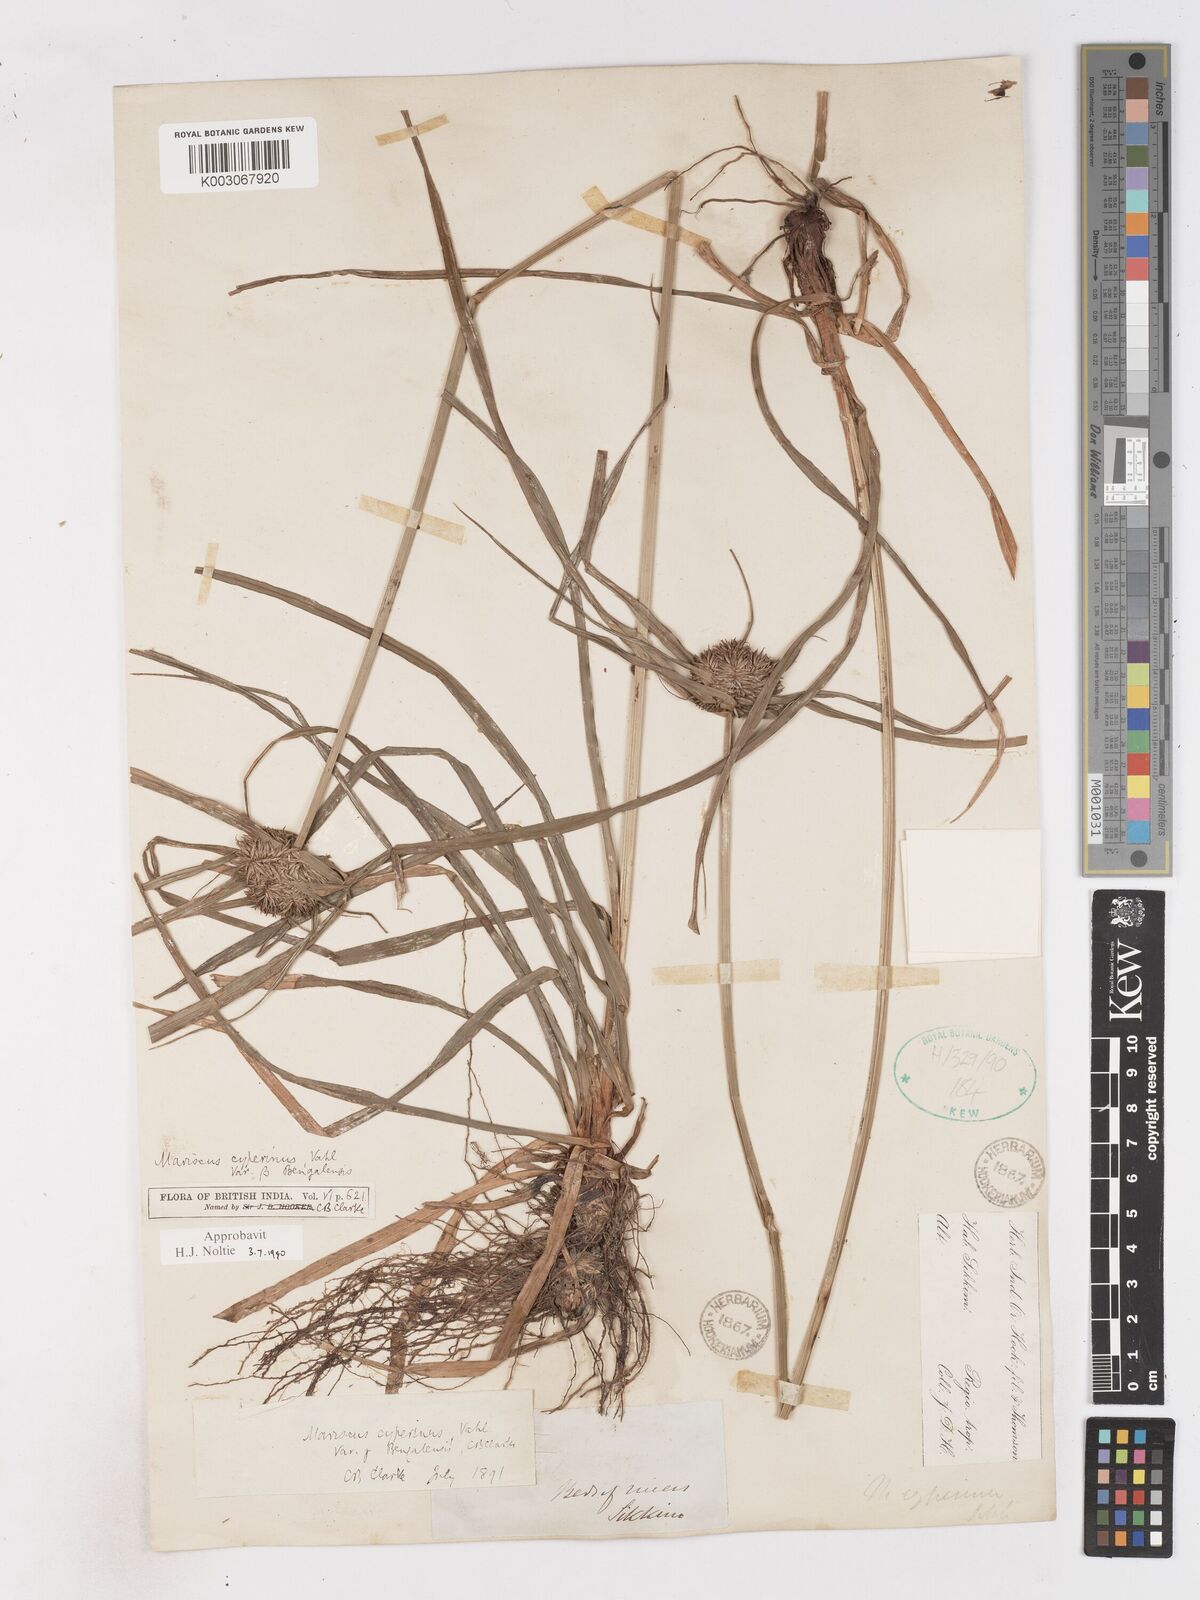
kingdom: Plantae
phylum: Tracheophyta
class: Liliopsida
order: Poales
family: Cyperaceae
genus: Cyperus
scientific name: Cyperus cyperinus
